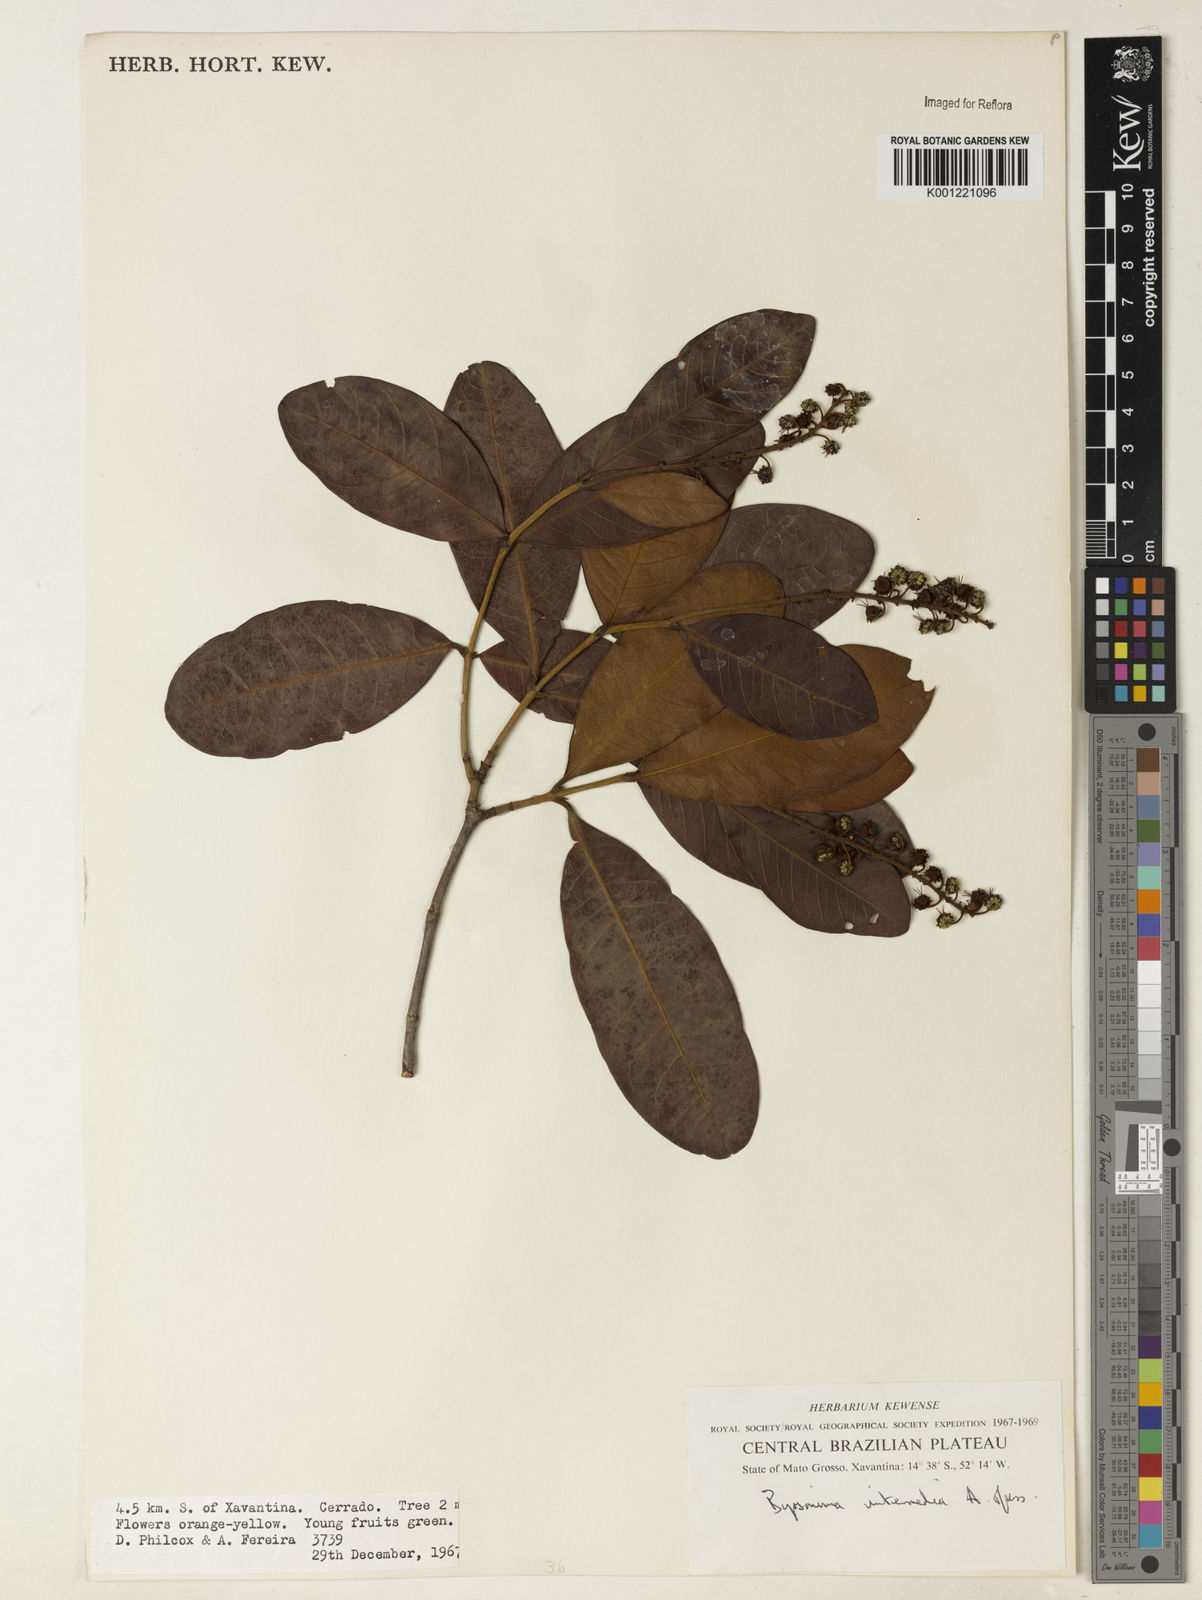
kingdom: Plantae
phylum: Tracheophyta
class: Magnoliopsida
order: Malpighiales
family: Malpighiaceae
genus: Byrsonima
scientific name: Byrsonima intermedia
